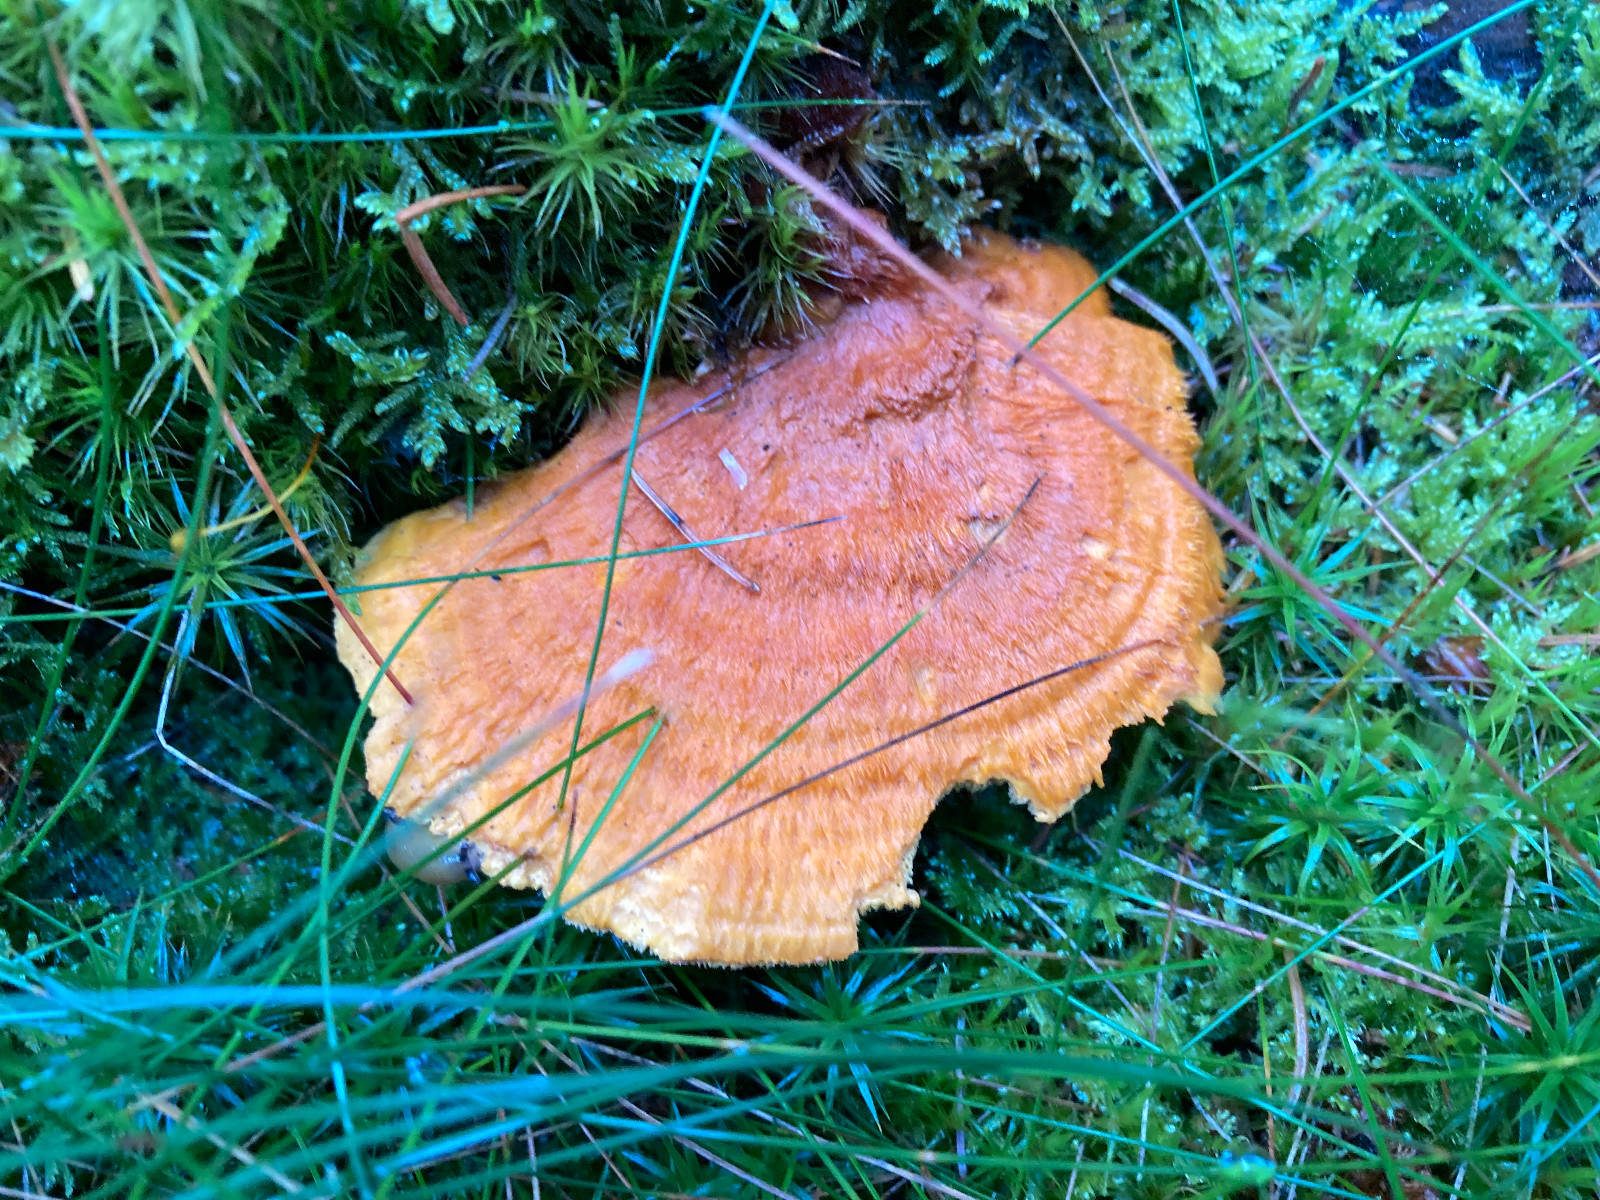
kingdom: Fungi
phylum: Basidiomycota
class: Agaricomycetes
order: Polyporales
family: Pycnoporellaceae
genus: Pycnoporellus
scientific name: Pycnoporellus fulgens
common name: flammeporesvamp
